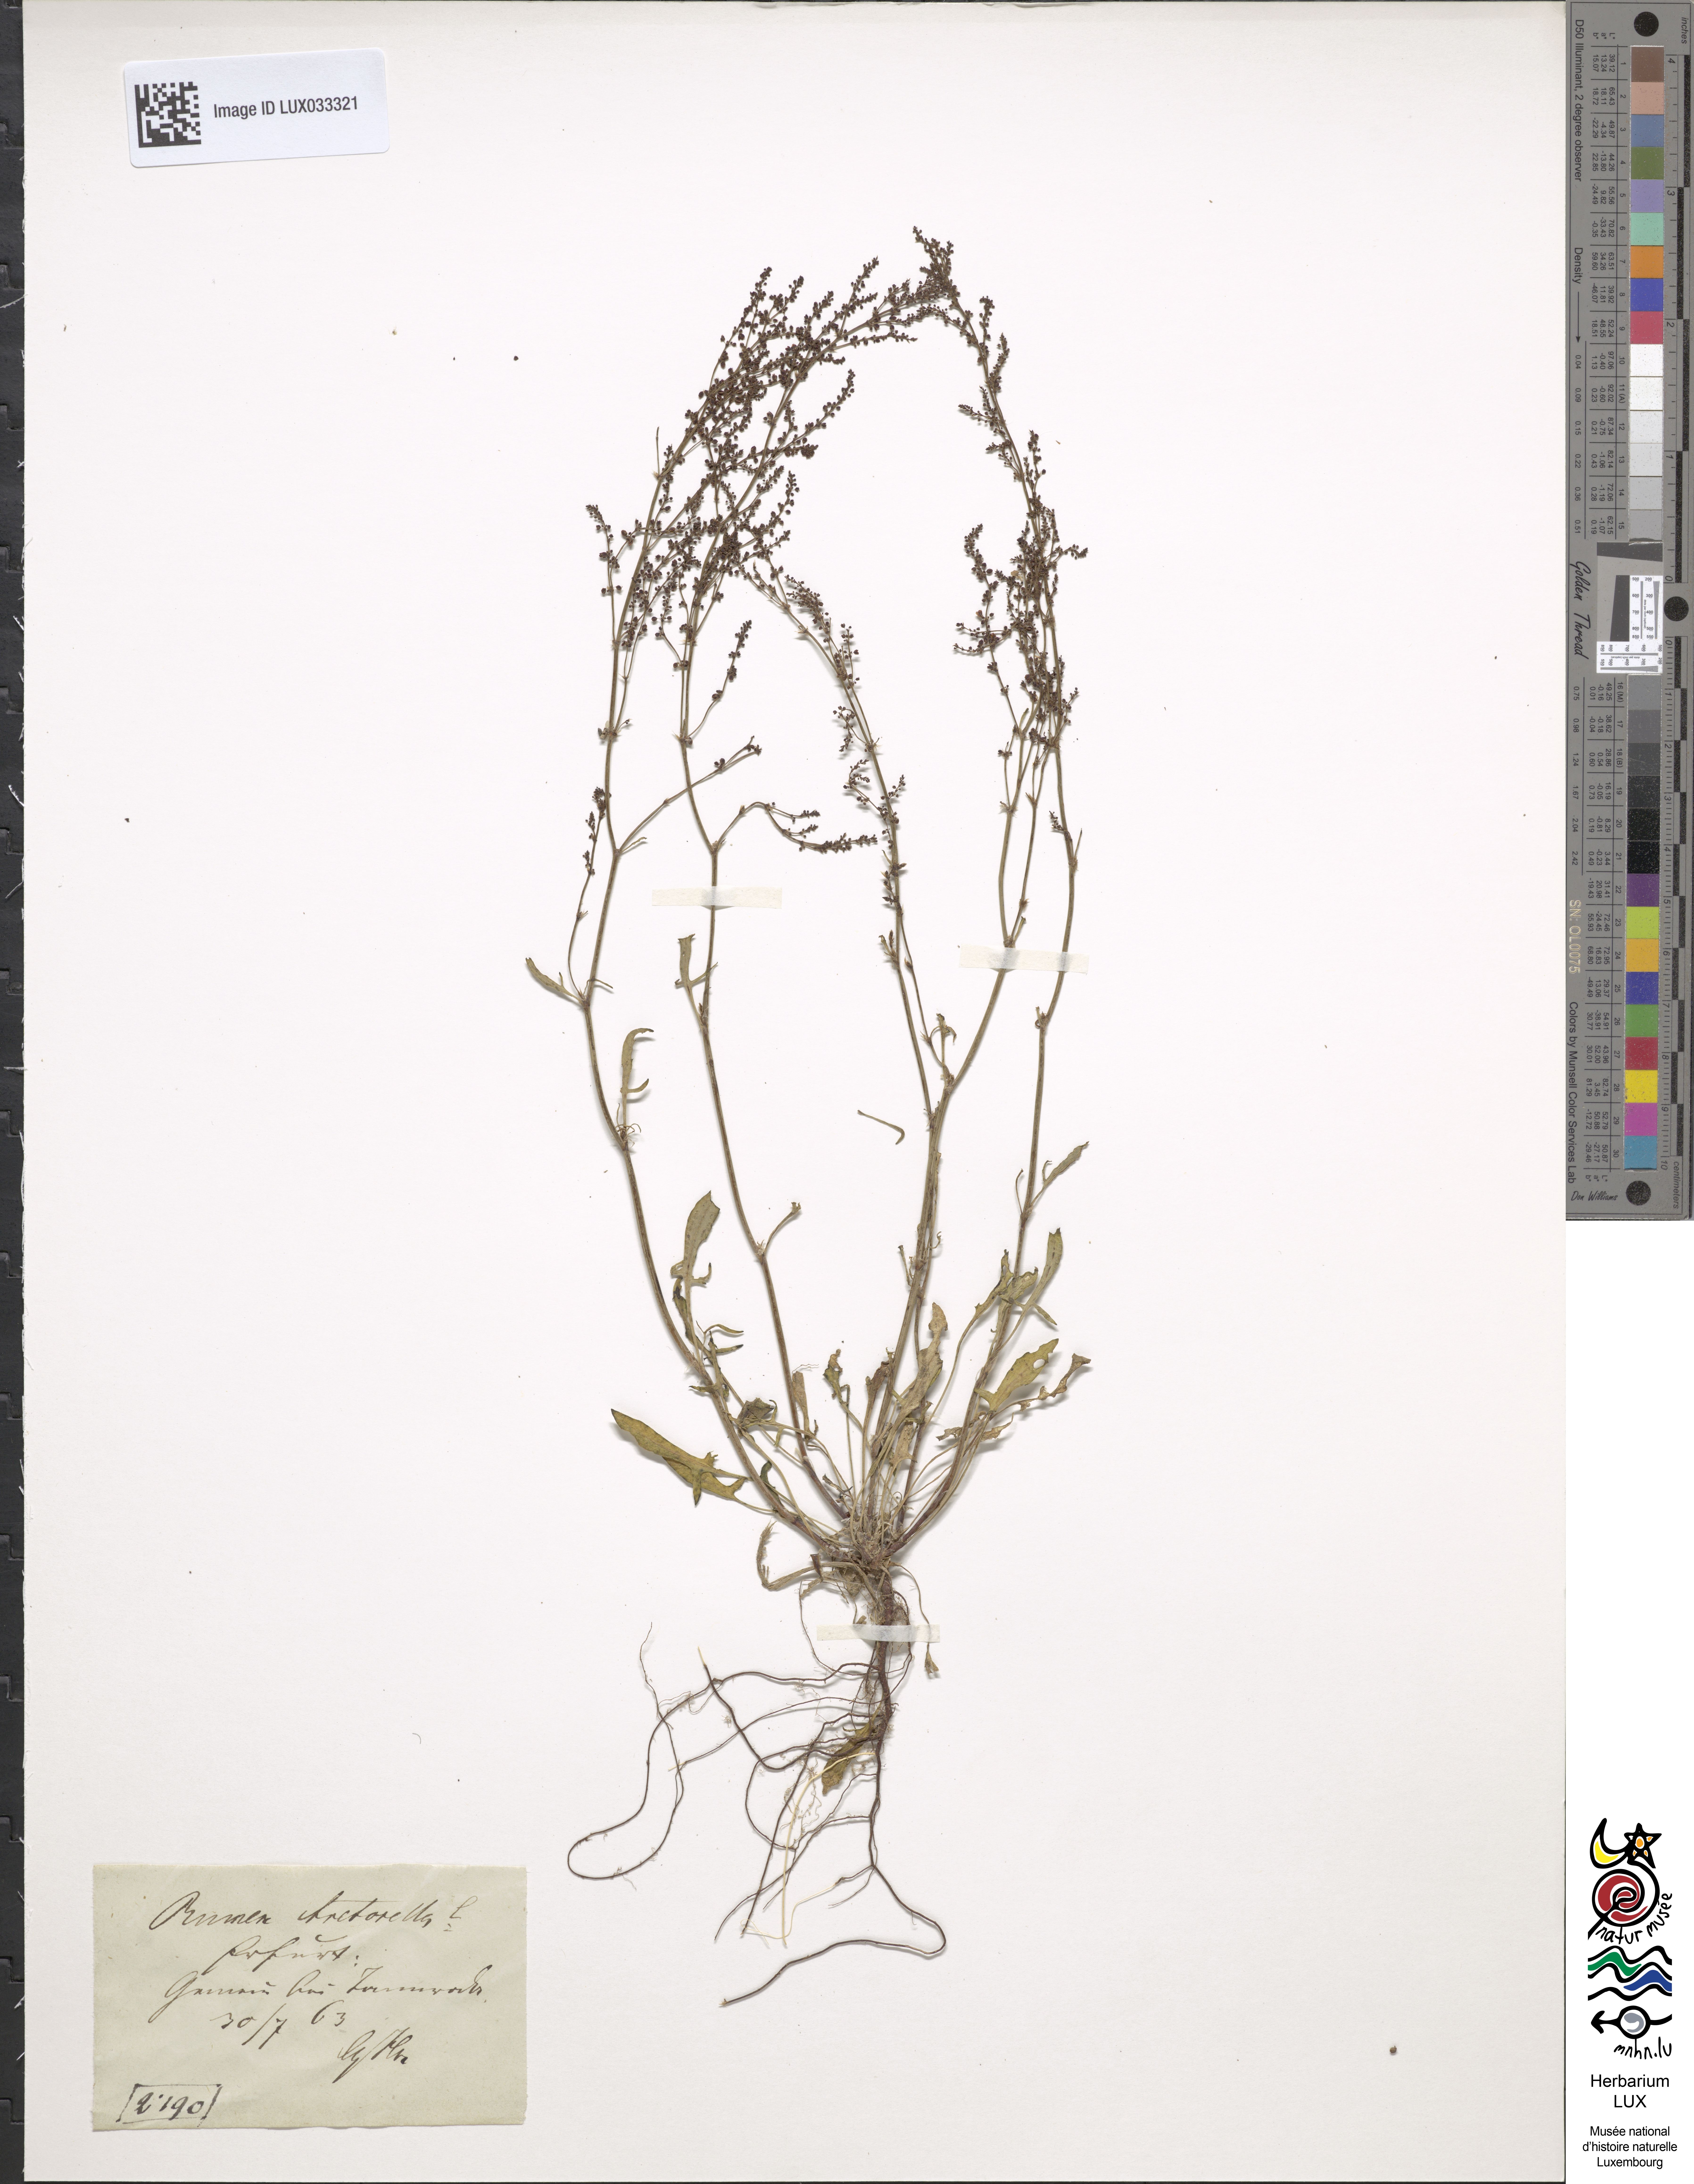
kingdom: Plantae
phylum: Tracheophyta
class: Magnoliopsida
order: Caryophyllales
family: Polygonaceae
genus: Rumex
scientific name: Rumex acetosella
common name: Common sheep sorrel
